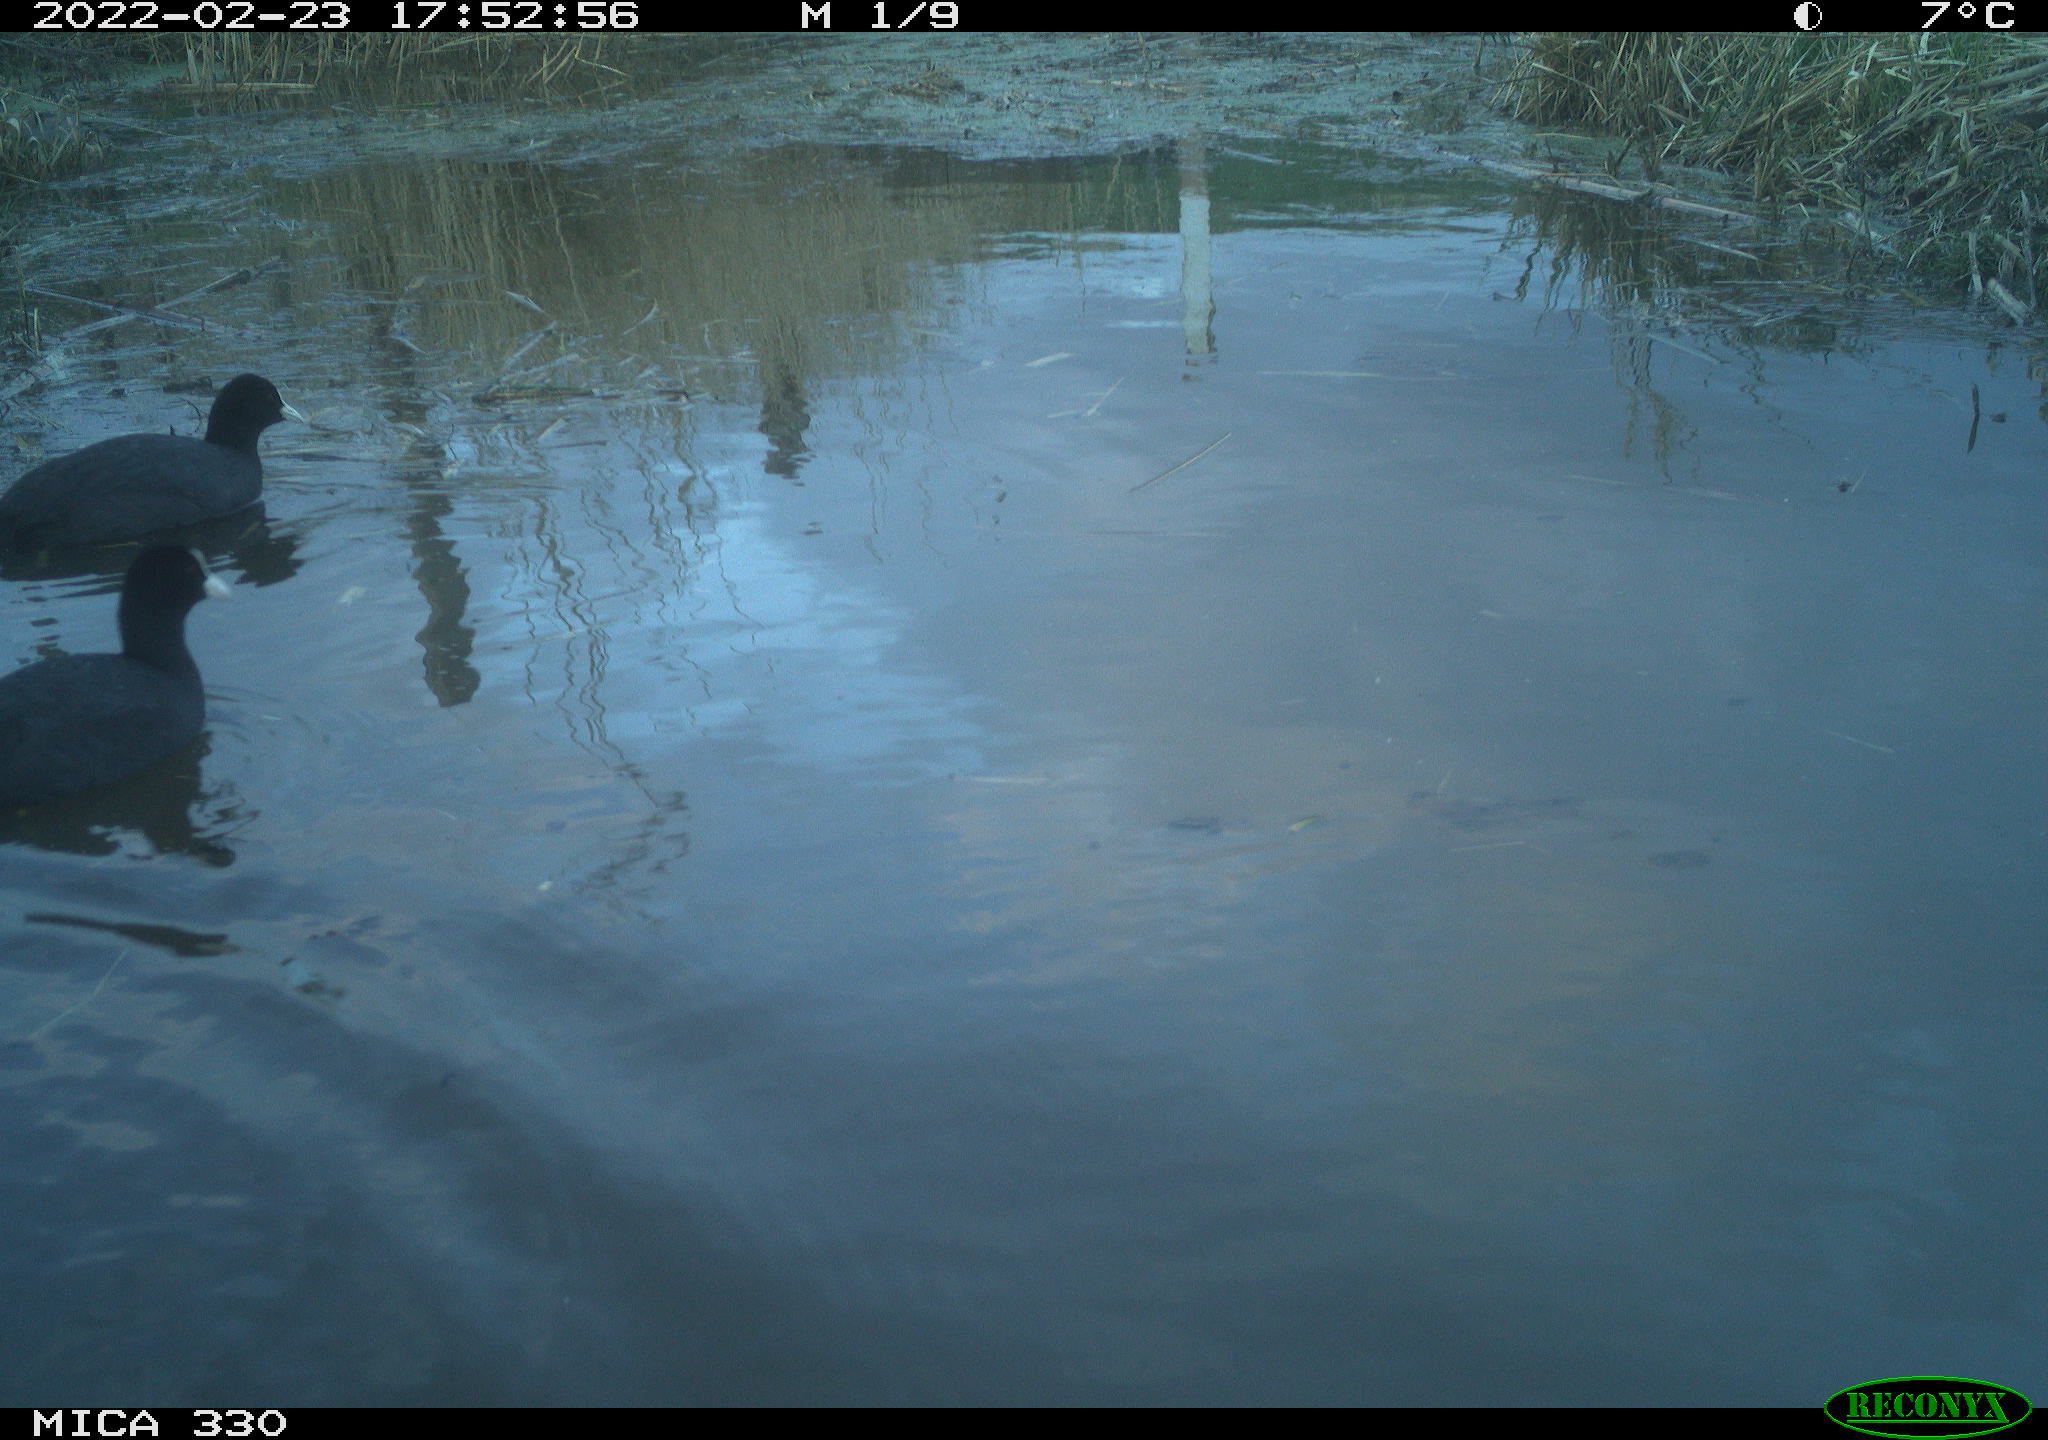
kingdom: Animalia
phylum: Chordata
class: Aves
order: Gruiformes
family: Rallidae
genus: Fulica
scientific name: Fulica atra
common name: Eurasian coot
